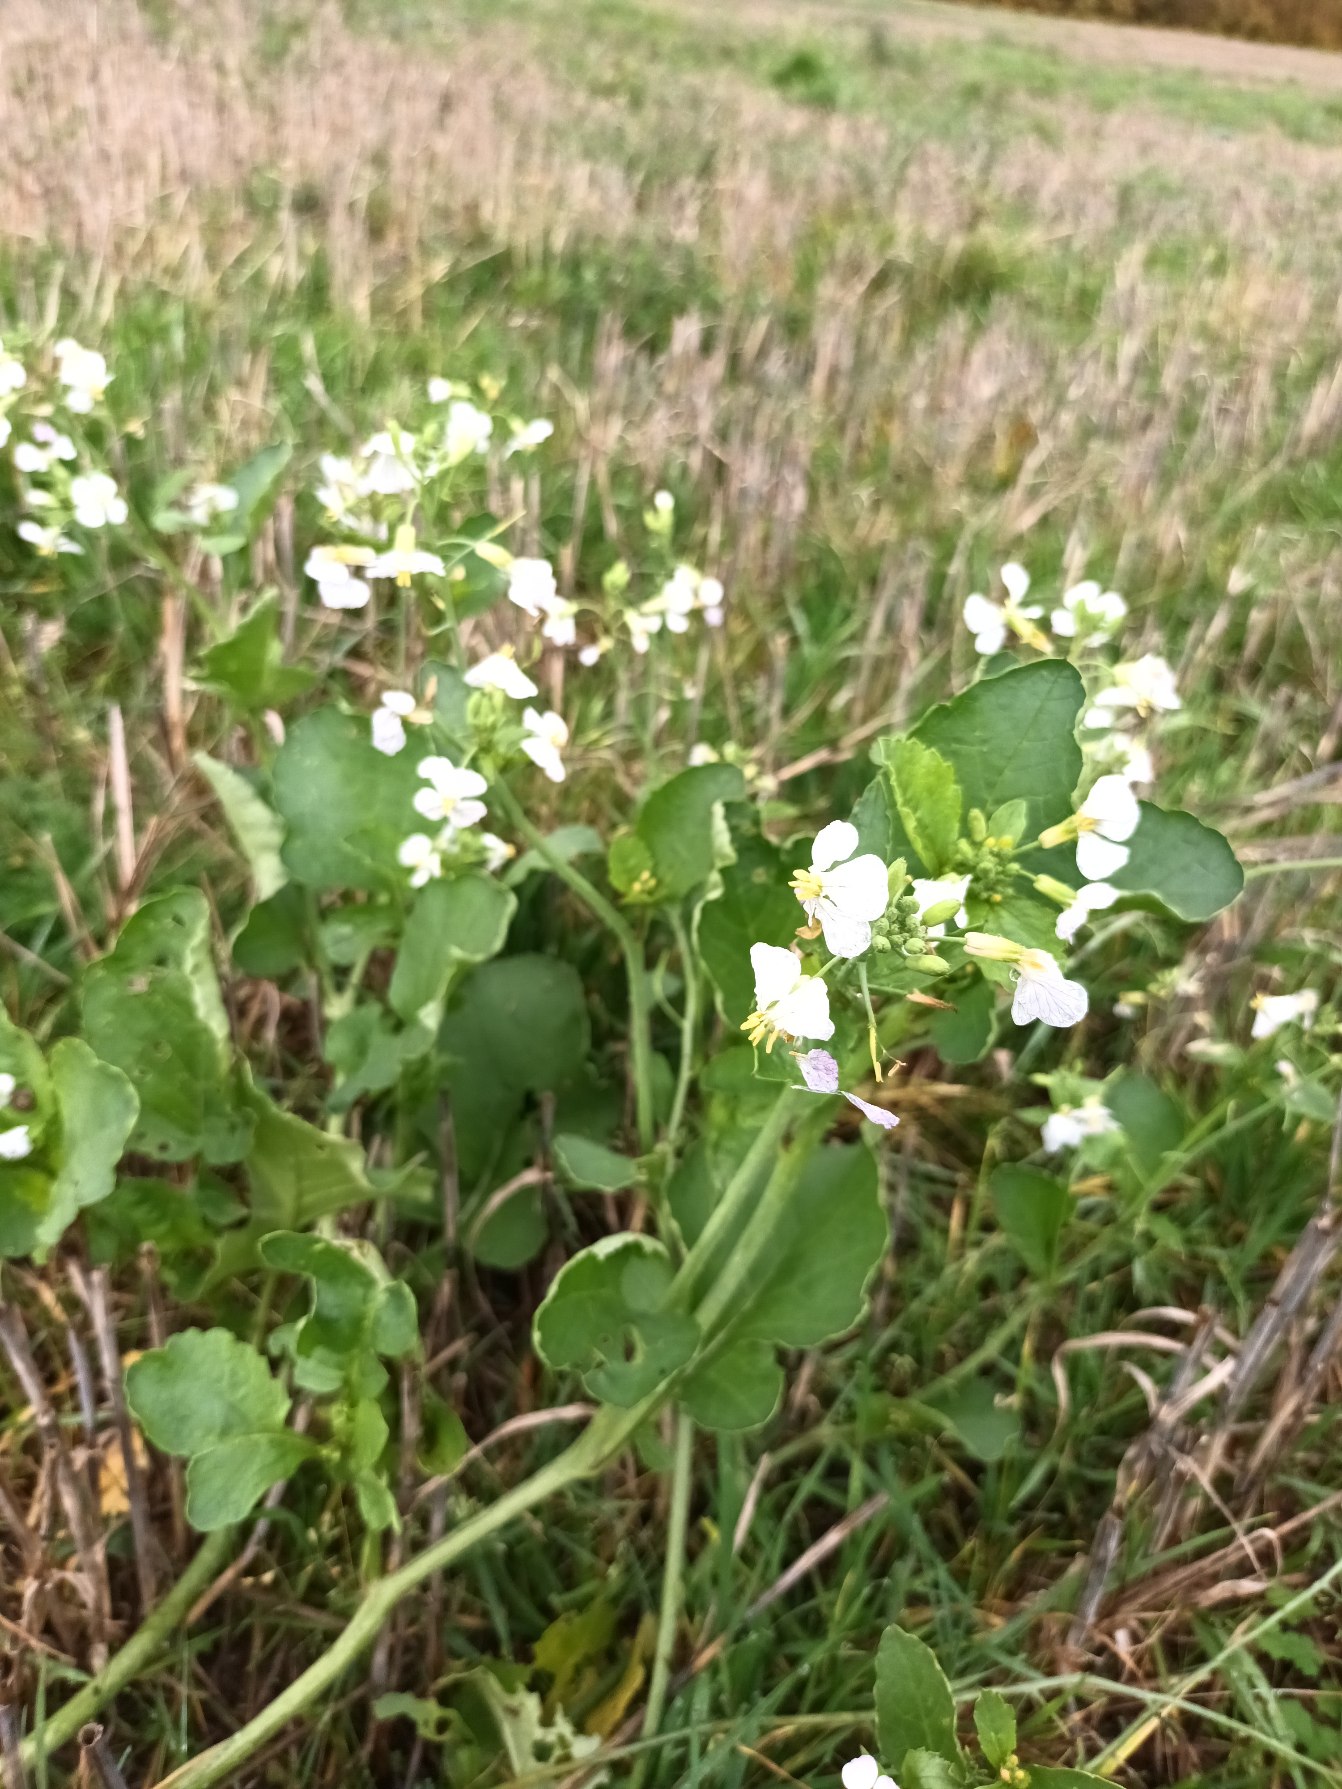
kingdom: Plantae
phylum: Tracheophyta
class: Magnoliopsida
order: Brassicales
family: Brassicaceae
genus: Raphanus
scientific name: Raphanus sativus
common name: Olie-ræddike
